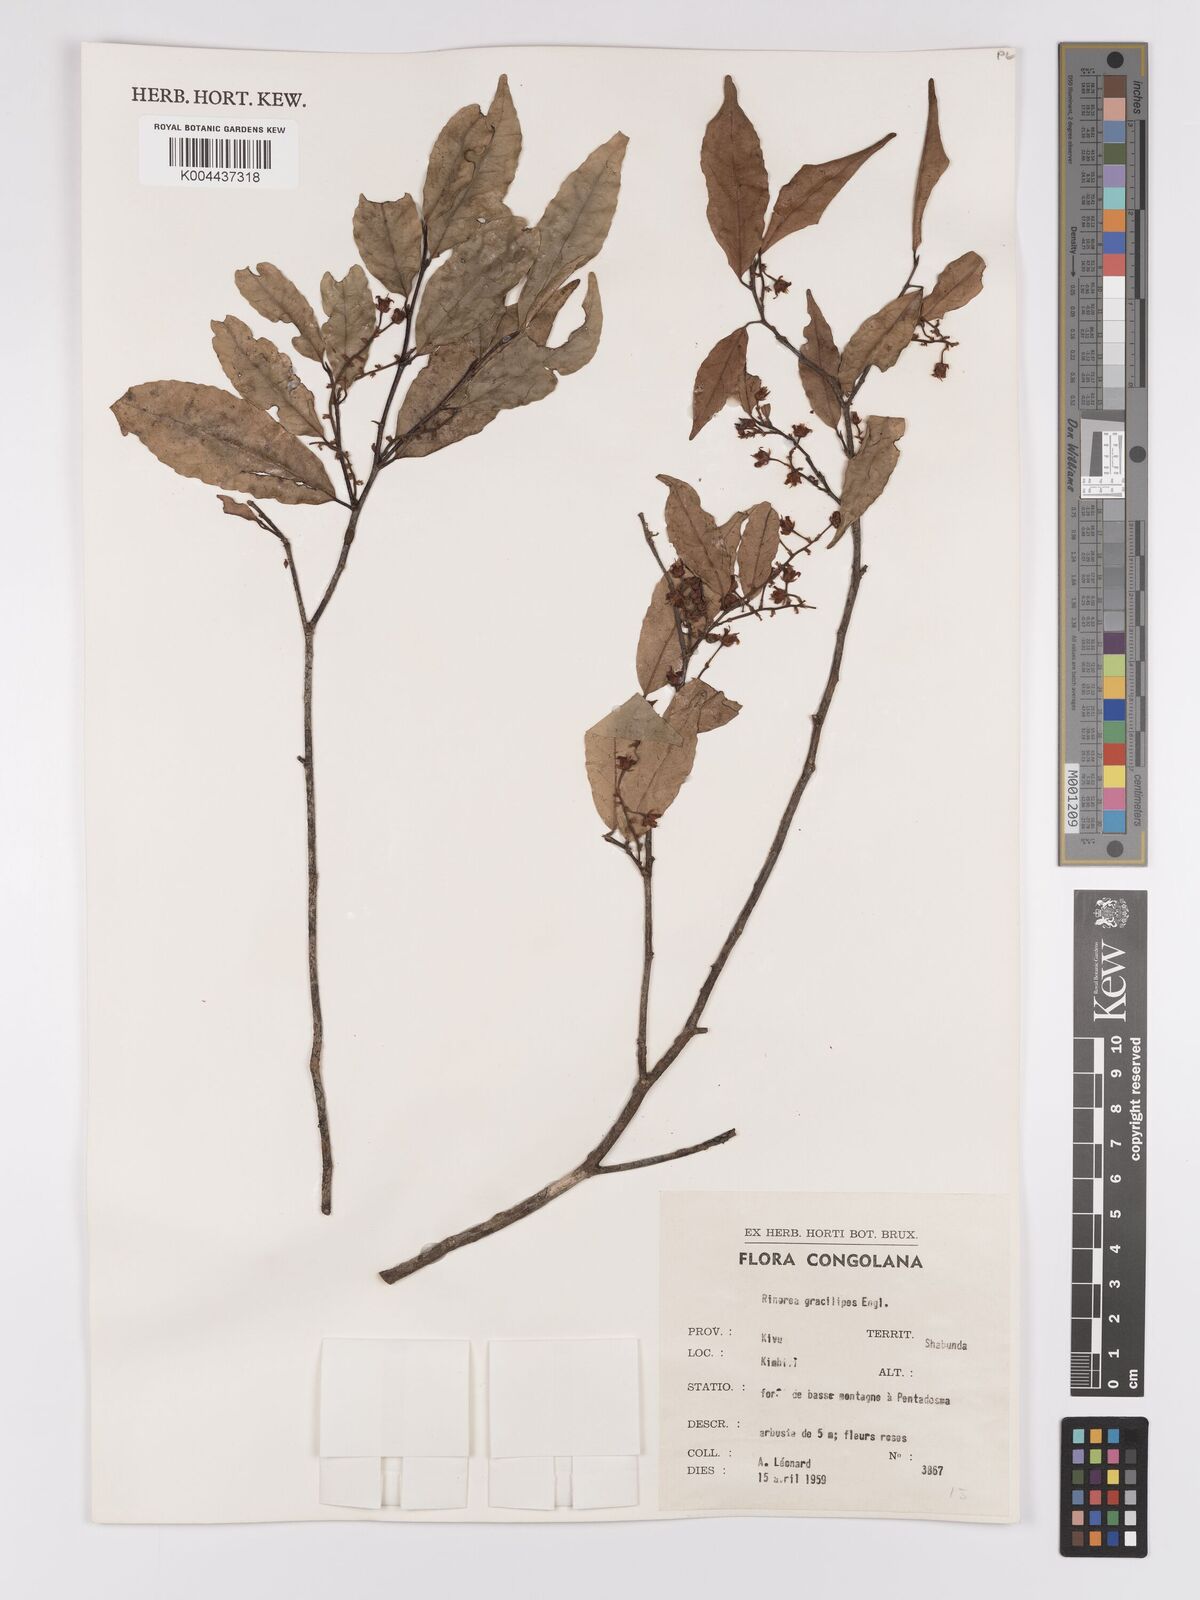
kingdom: Plantae
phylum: Tracheophyta
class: Magnoliopsida
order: Malpighiales
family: Violaceae
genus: Rinorea
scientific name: Rinorea angustifolia
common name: White violet-bush
